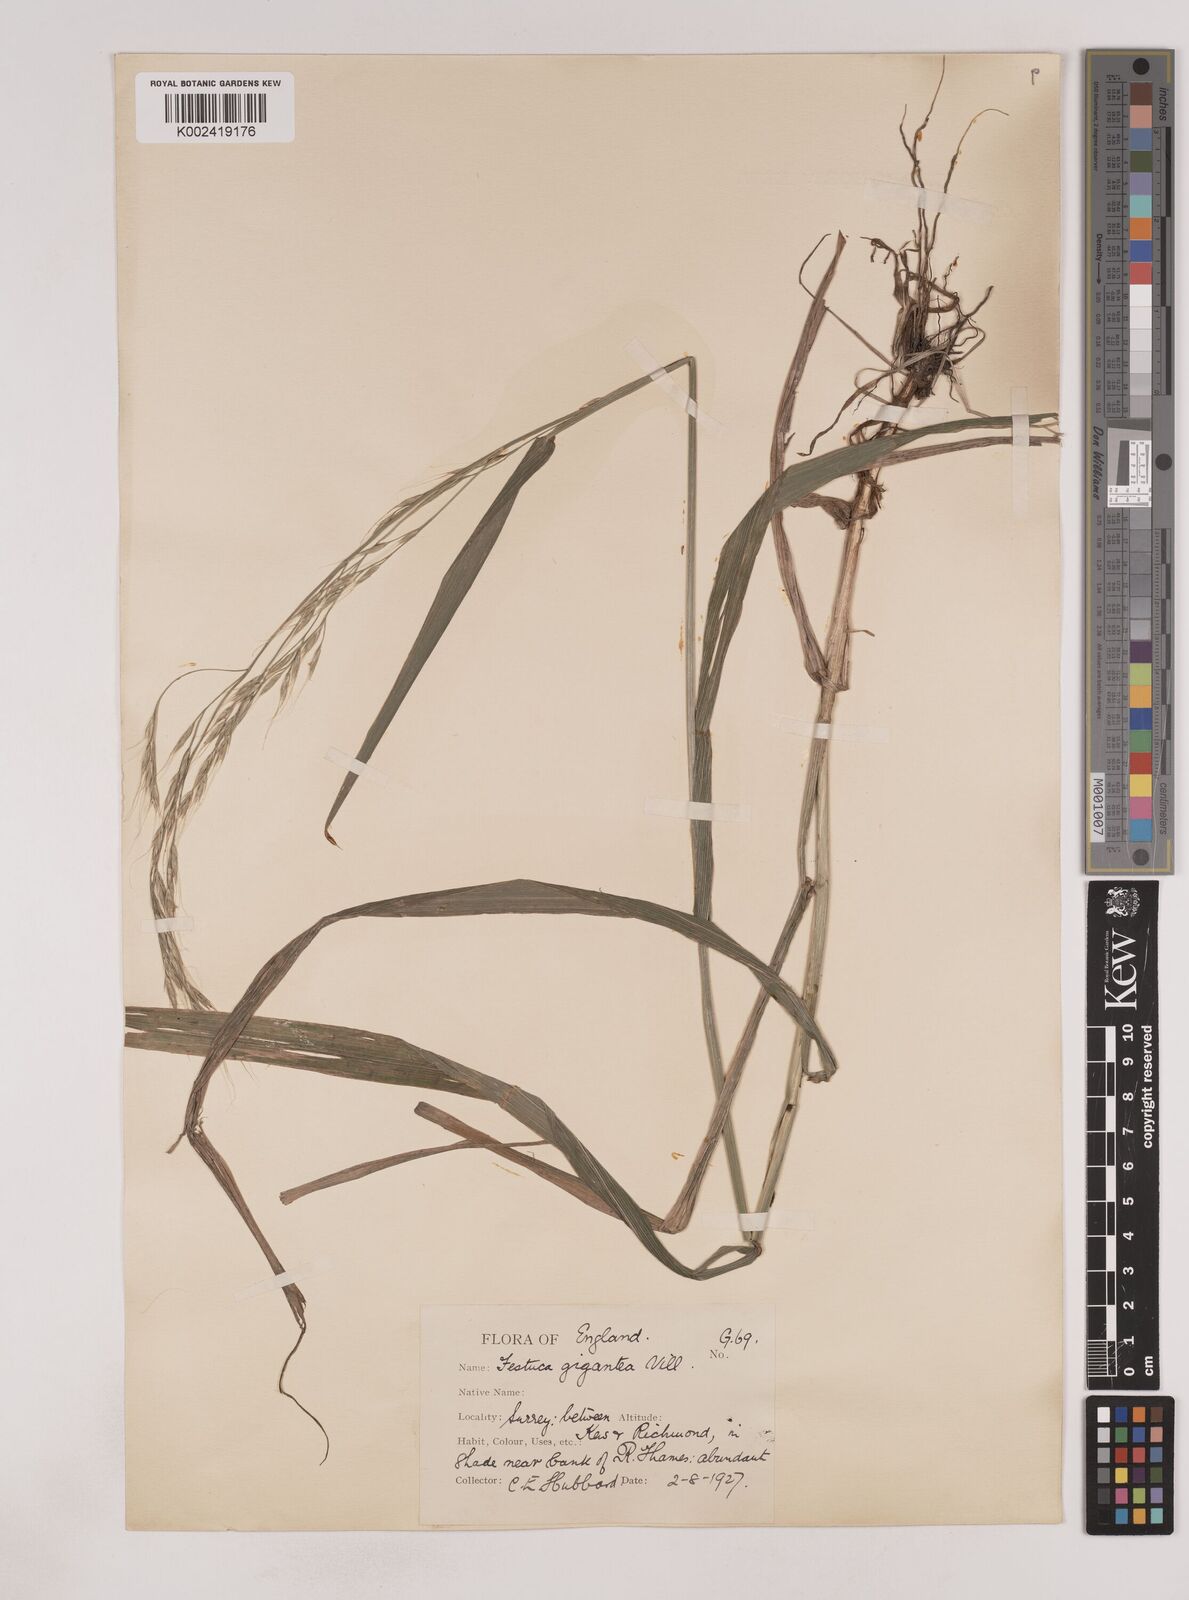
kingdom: Plantae
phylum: Tracheophyta
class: Liliopsida
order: Poales
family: Poaceae
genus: Lolium
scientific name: Lolium giganteum
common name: Giant fescue
